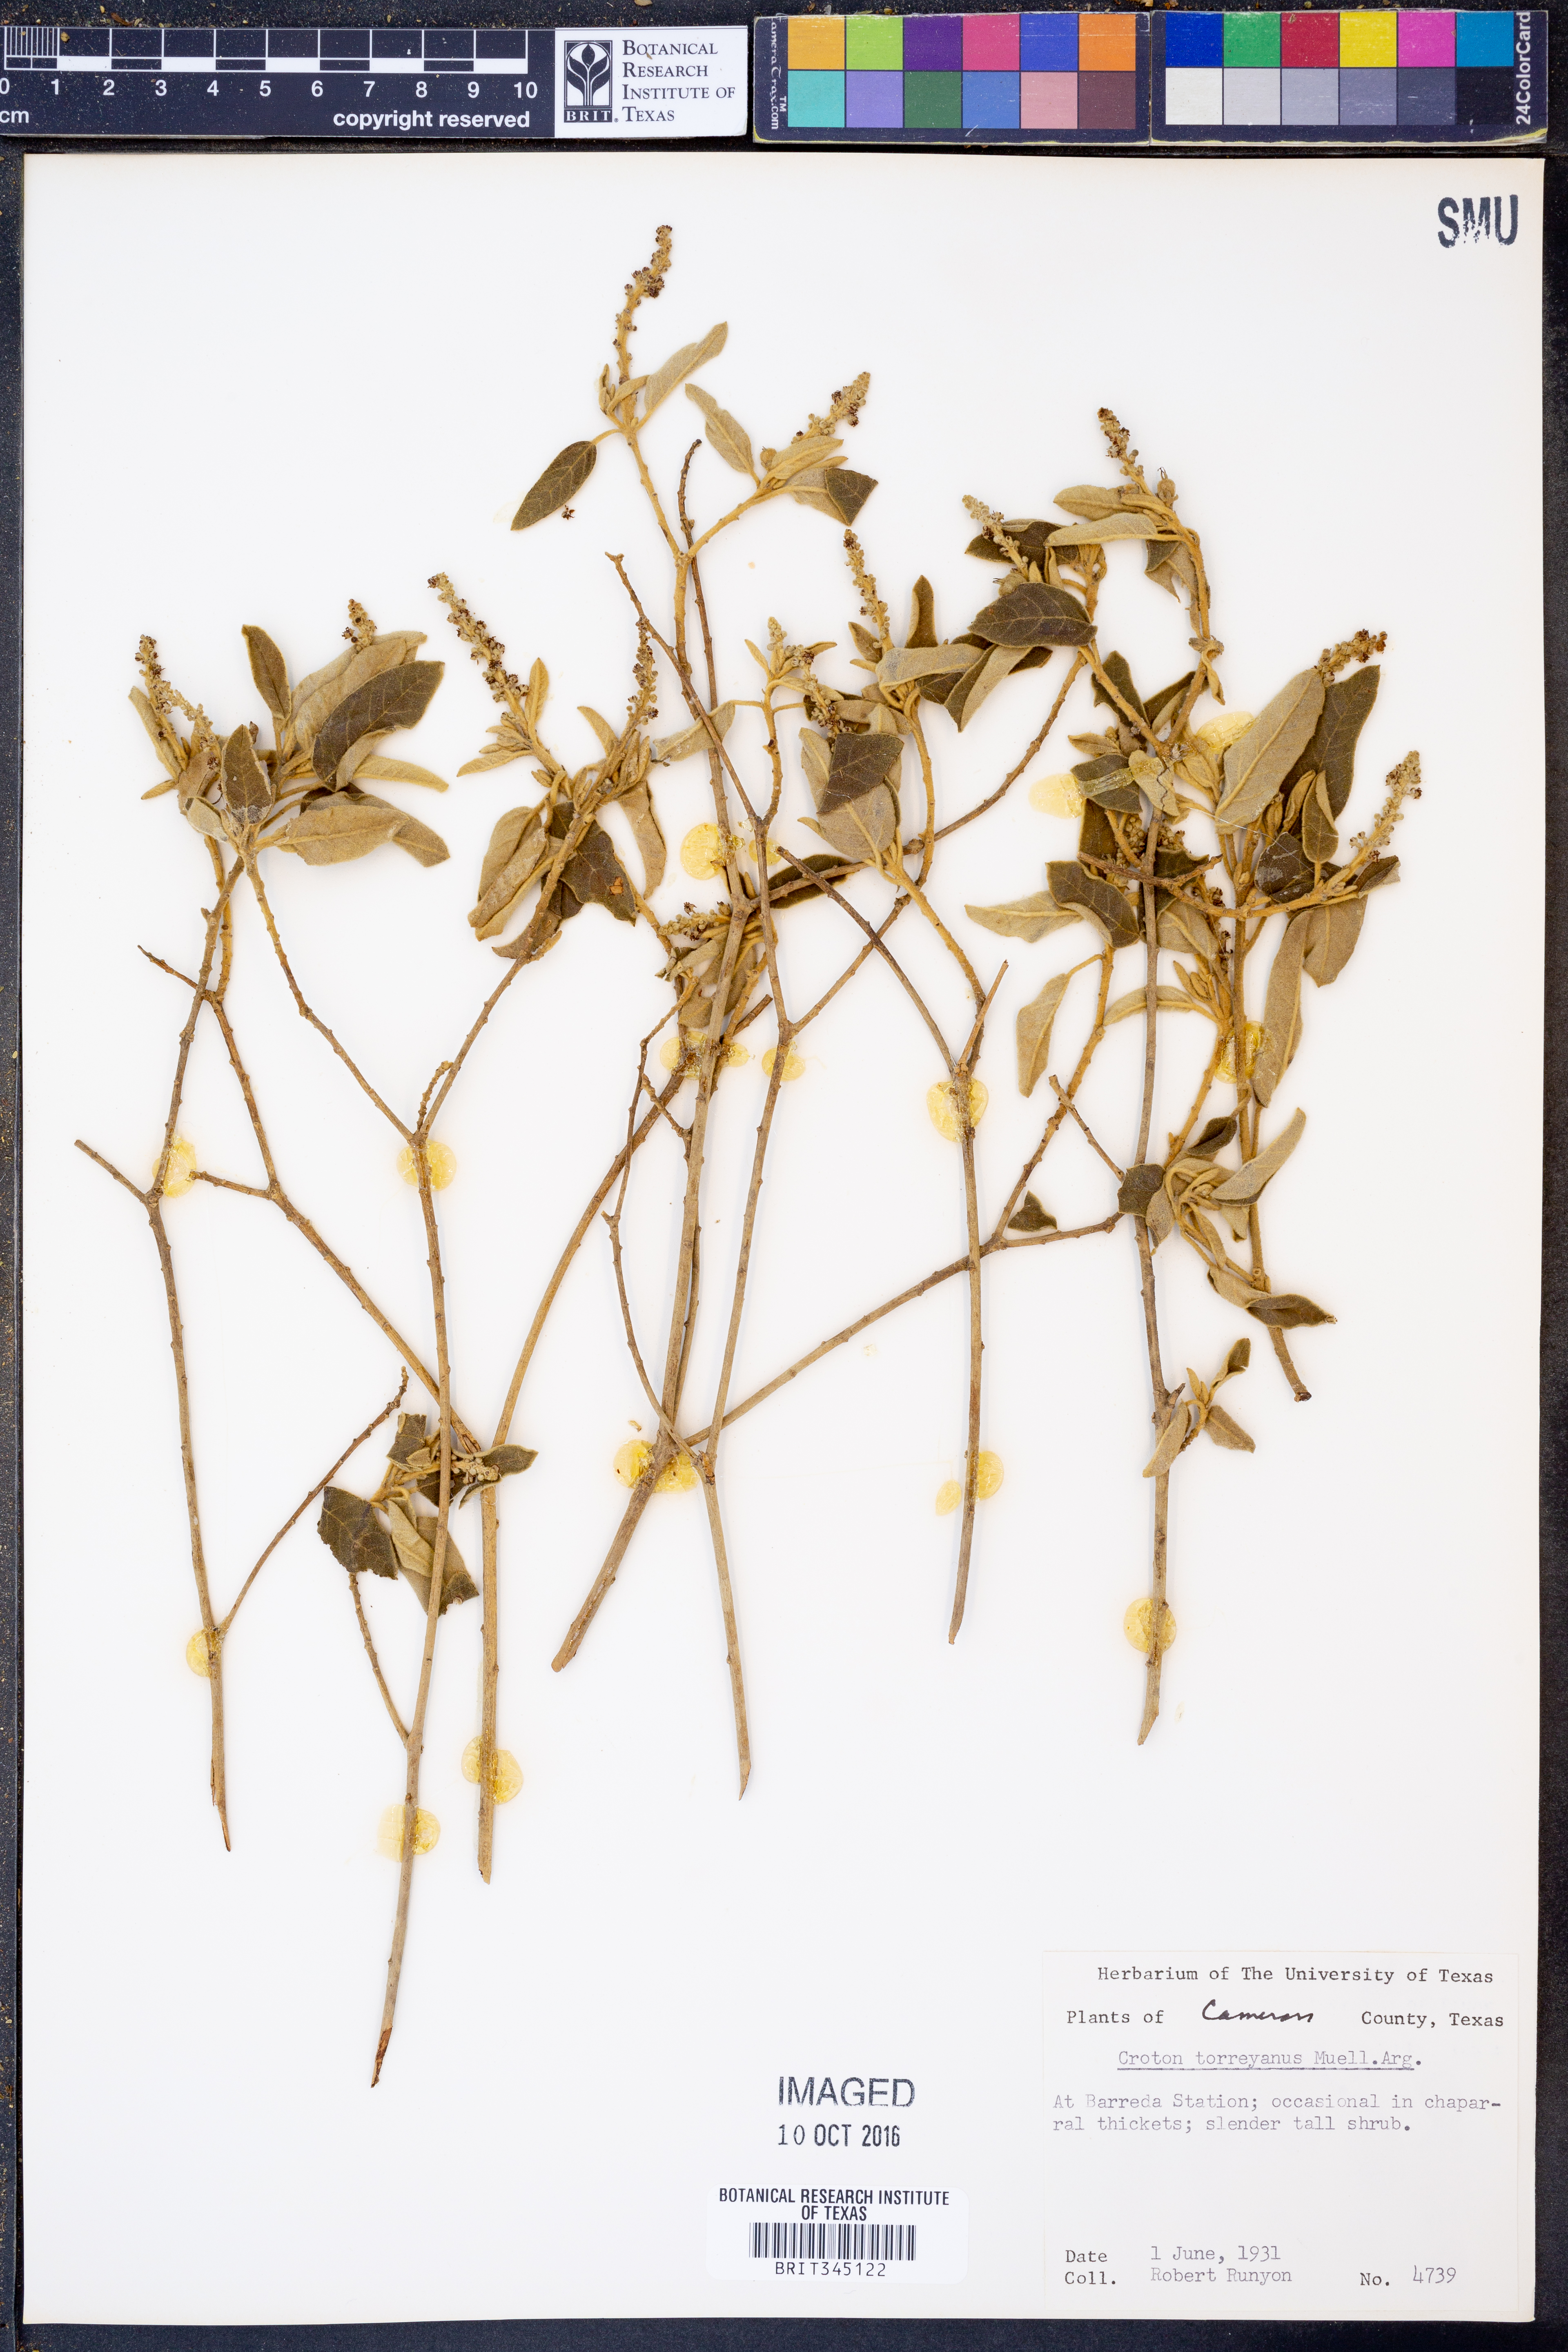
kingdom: Plantae
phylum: Tracheophyta
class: Magnoliopsida
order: Malpighiales
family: Euphorbiaceae
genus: Croton
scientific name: Croton incanus
